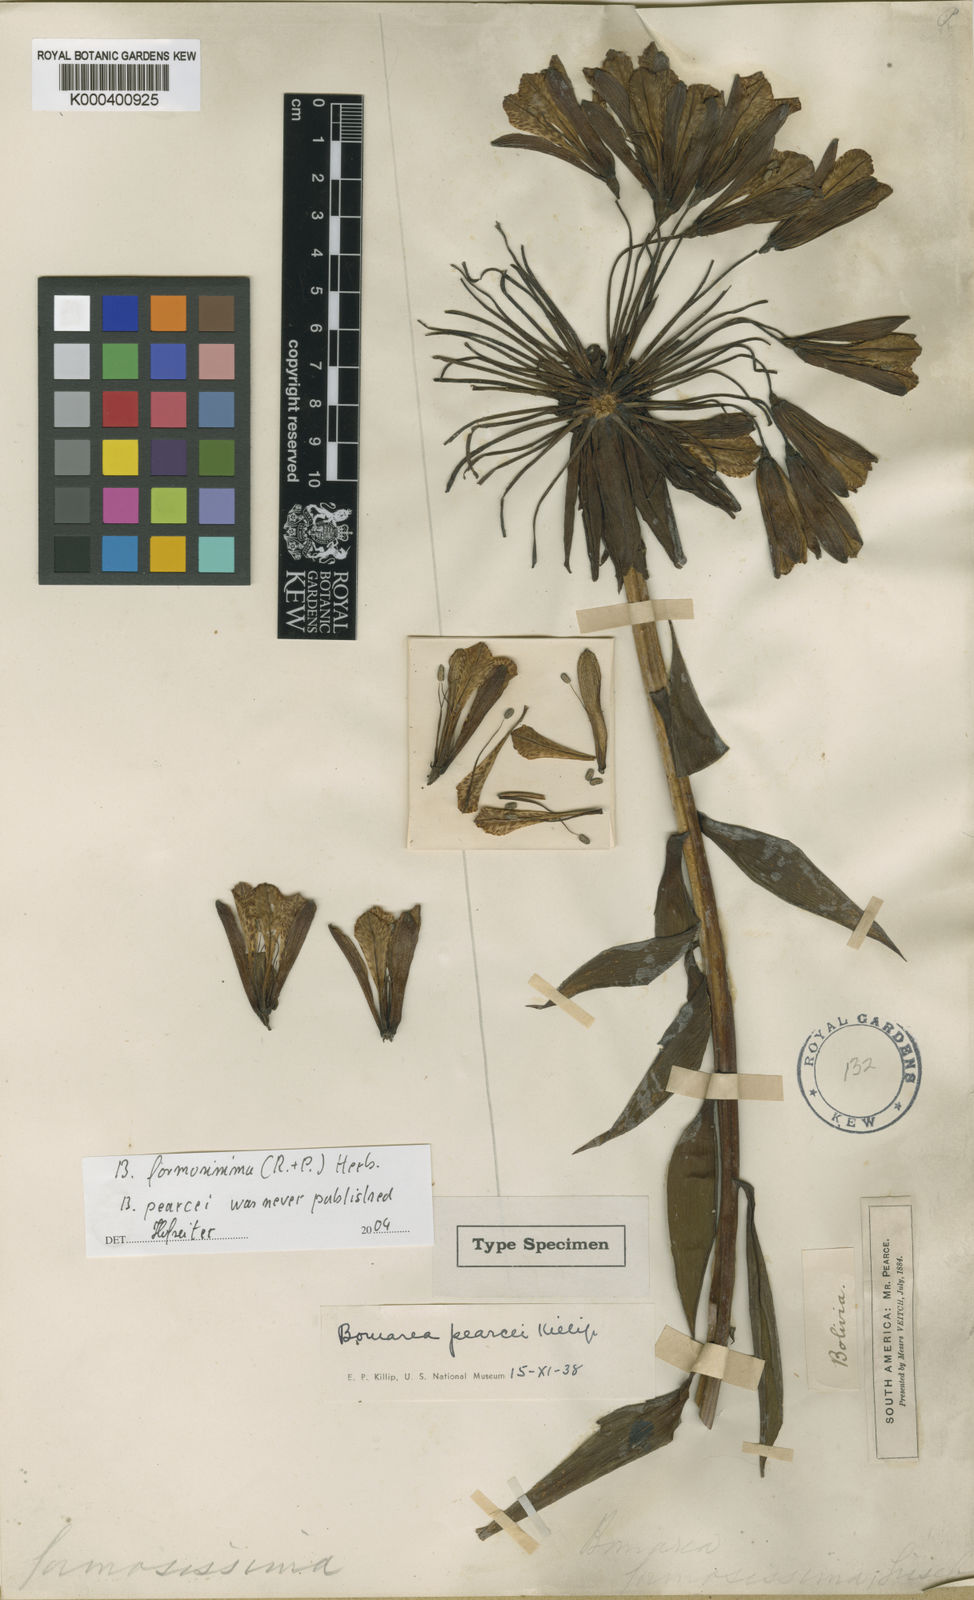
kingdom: Plantae
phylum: Tracheophyta
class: Liliopsida
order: Liliales
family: Alstroemeriaceae
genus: Bomarea
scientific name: Bomarea formosissima
